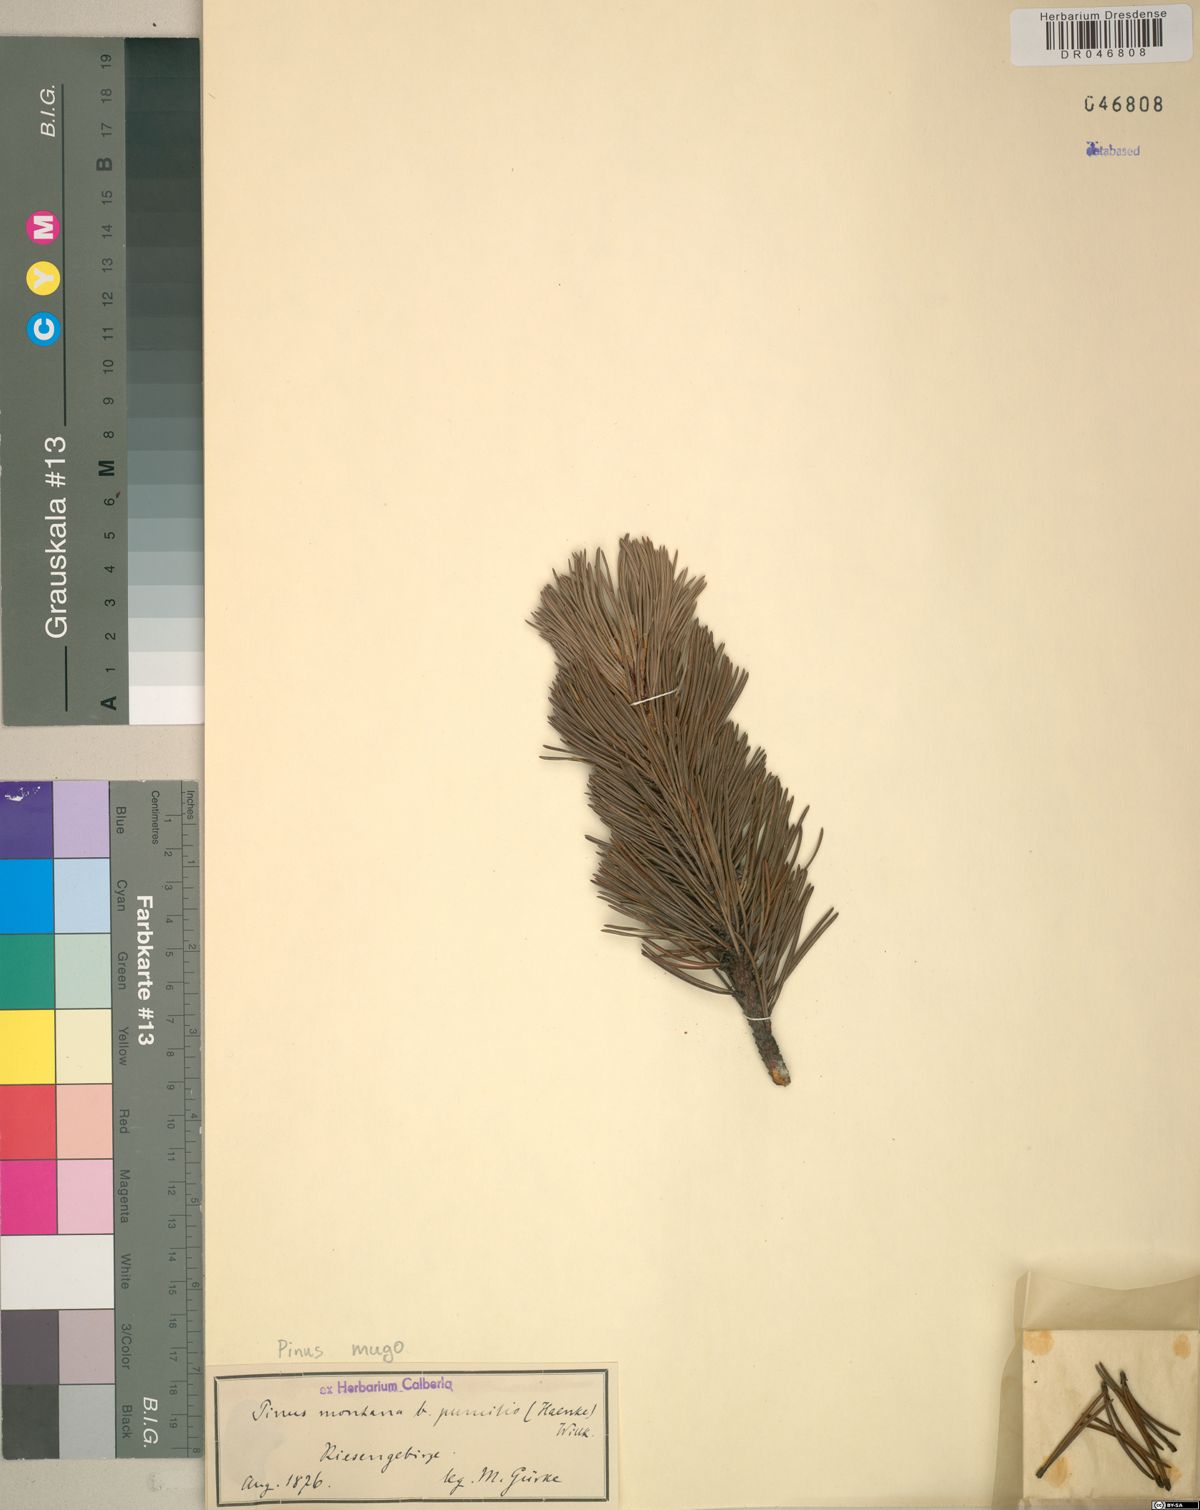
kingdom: Plantae
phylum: Tracheophyta
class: Pinopsida
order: Pinales
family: Pinaceae
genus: Pinus
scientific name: Pinus mugo
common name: Mugo pine
